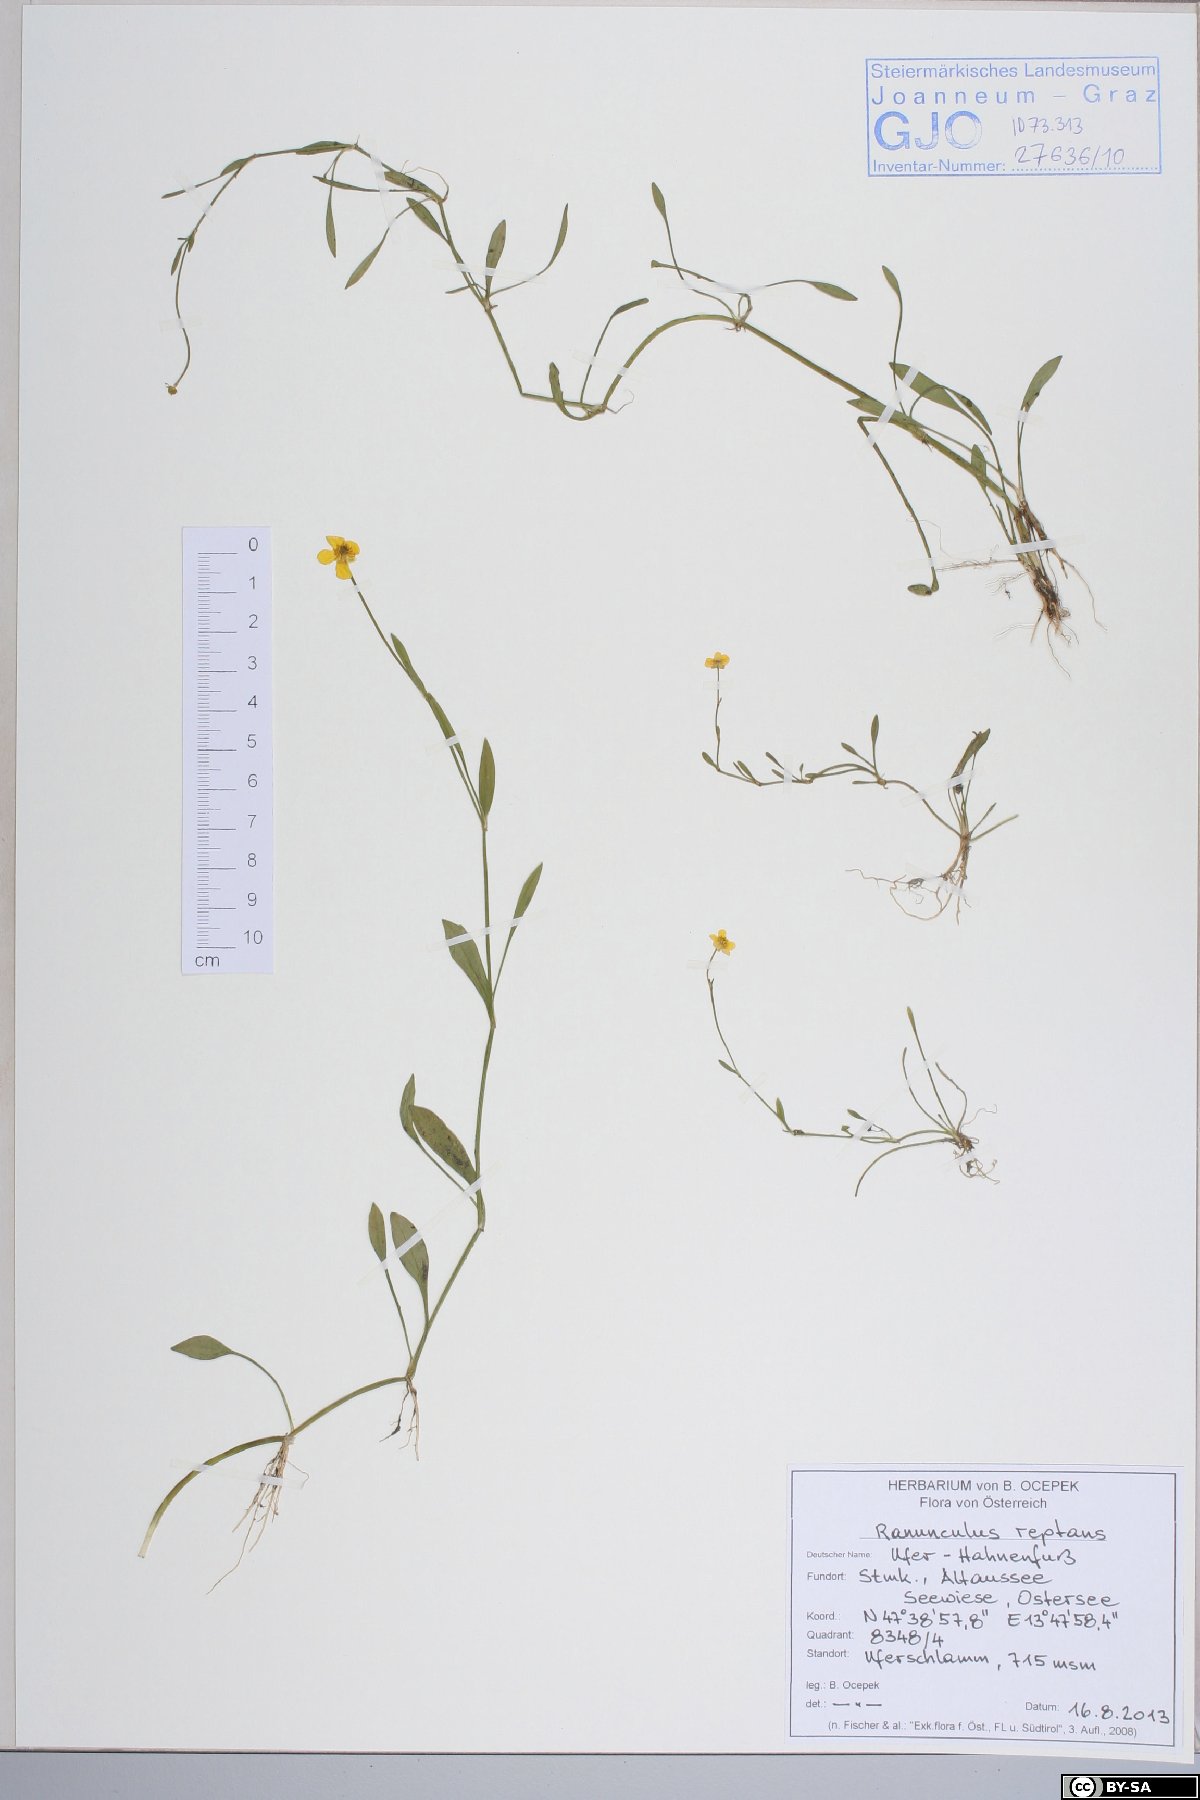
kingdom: Plantae
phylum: Tracheophyta
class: Magnoliopsida
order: Ranunculales
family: Ranunculaceae
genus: Ranunculus
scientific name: Ranunculus reptans
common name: Creeping spearwort
